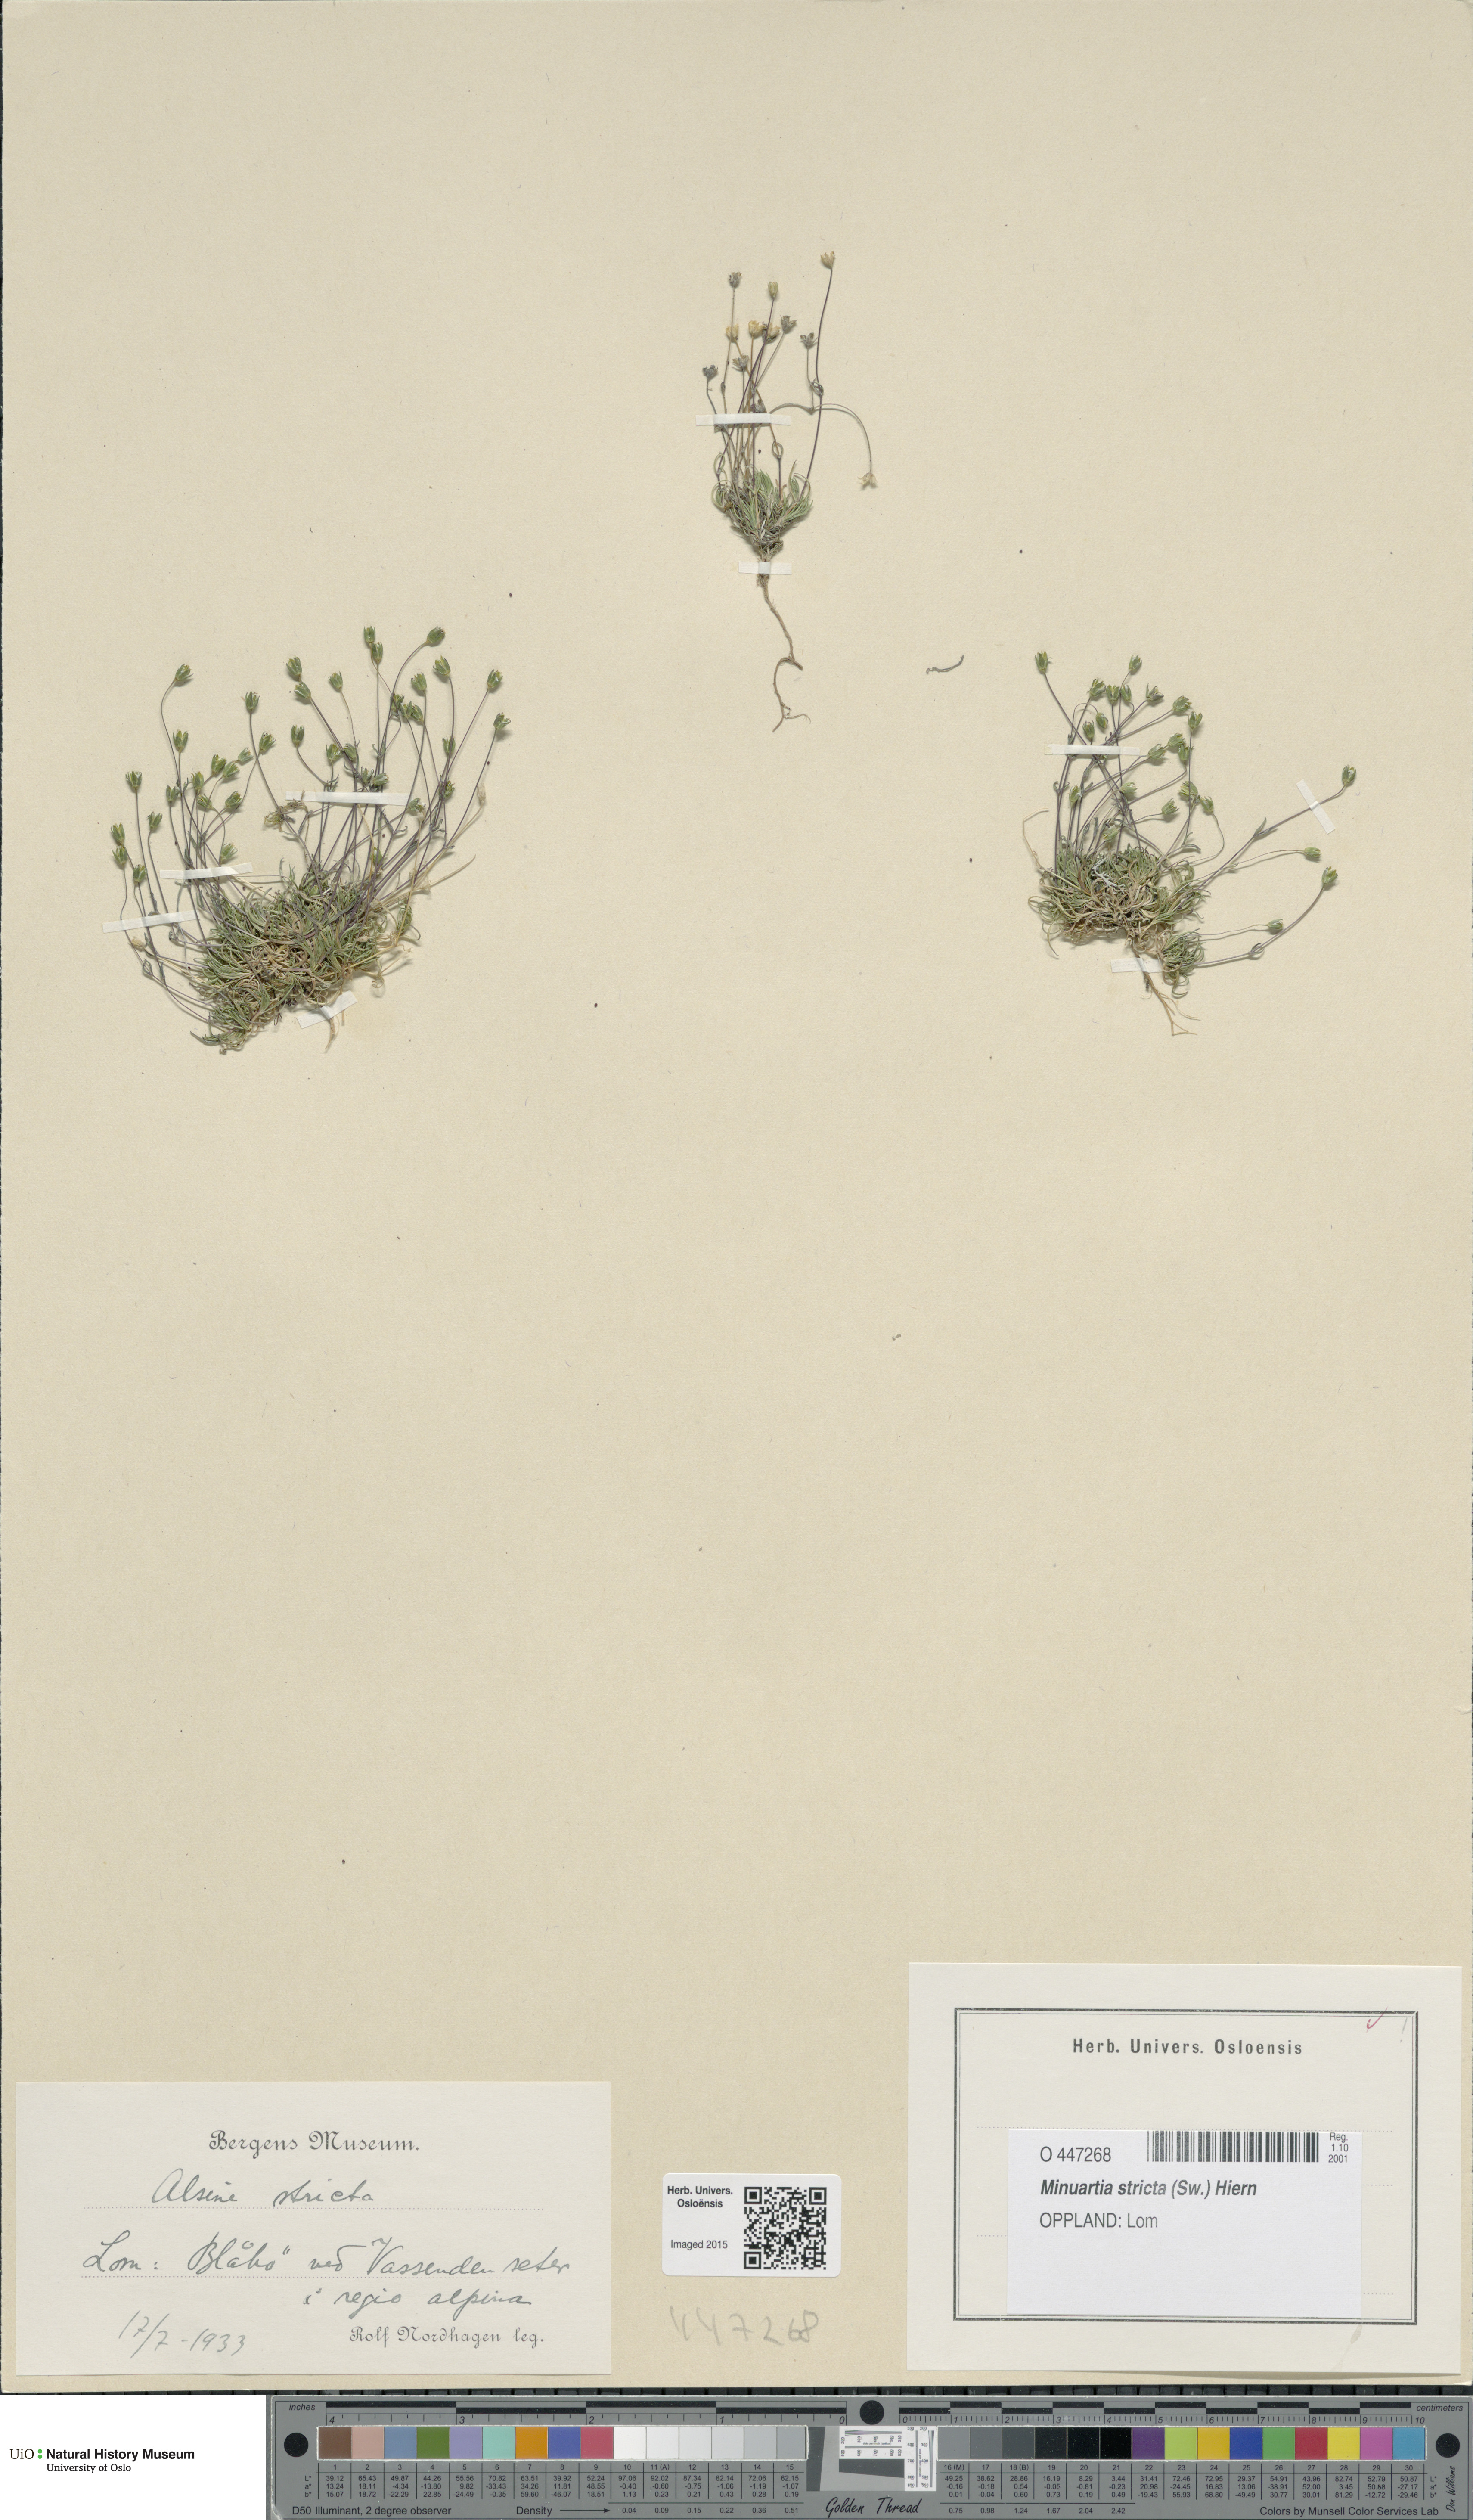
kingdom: Plantae
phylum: Tracheophyta
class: Magnoliopsida
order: Caryophyllales
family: Caryophyllaceae
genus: Sabulina
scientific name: Sabulina stricta
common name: Bog sandwort
